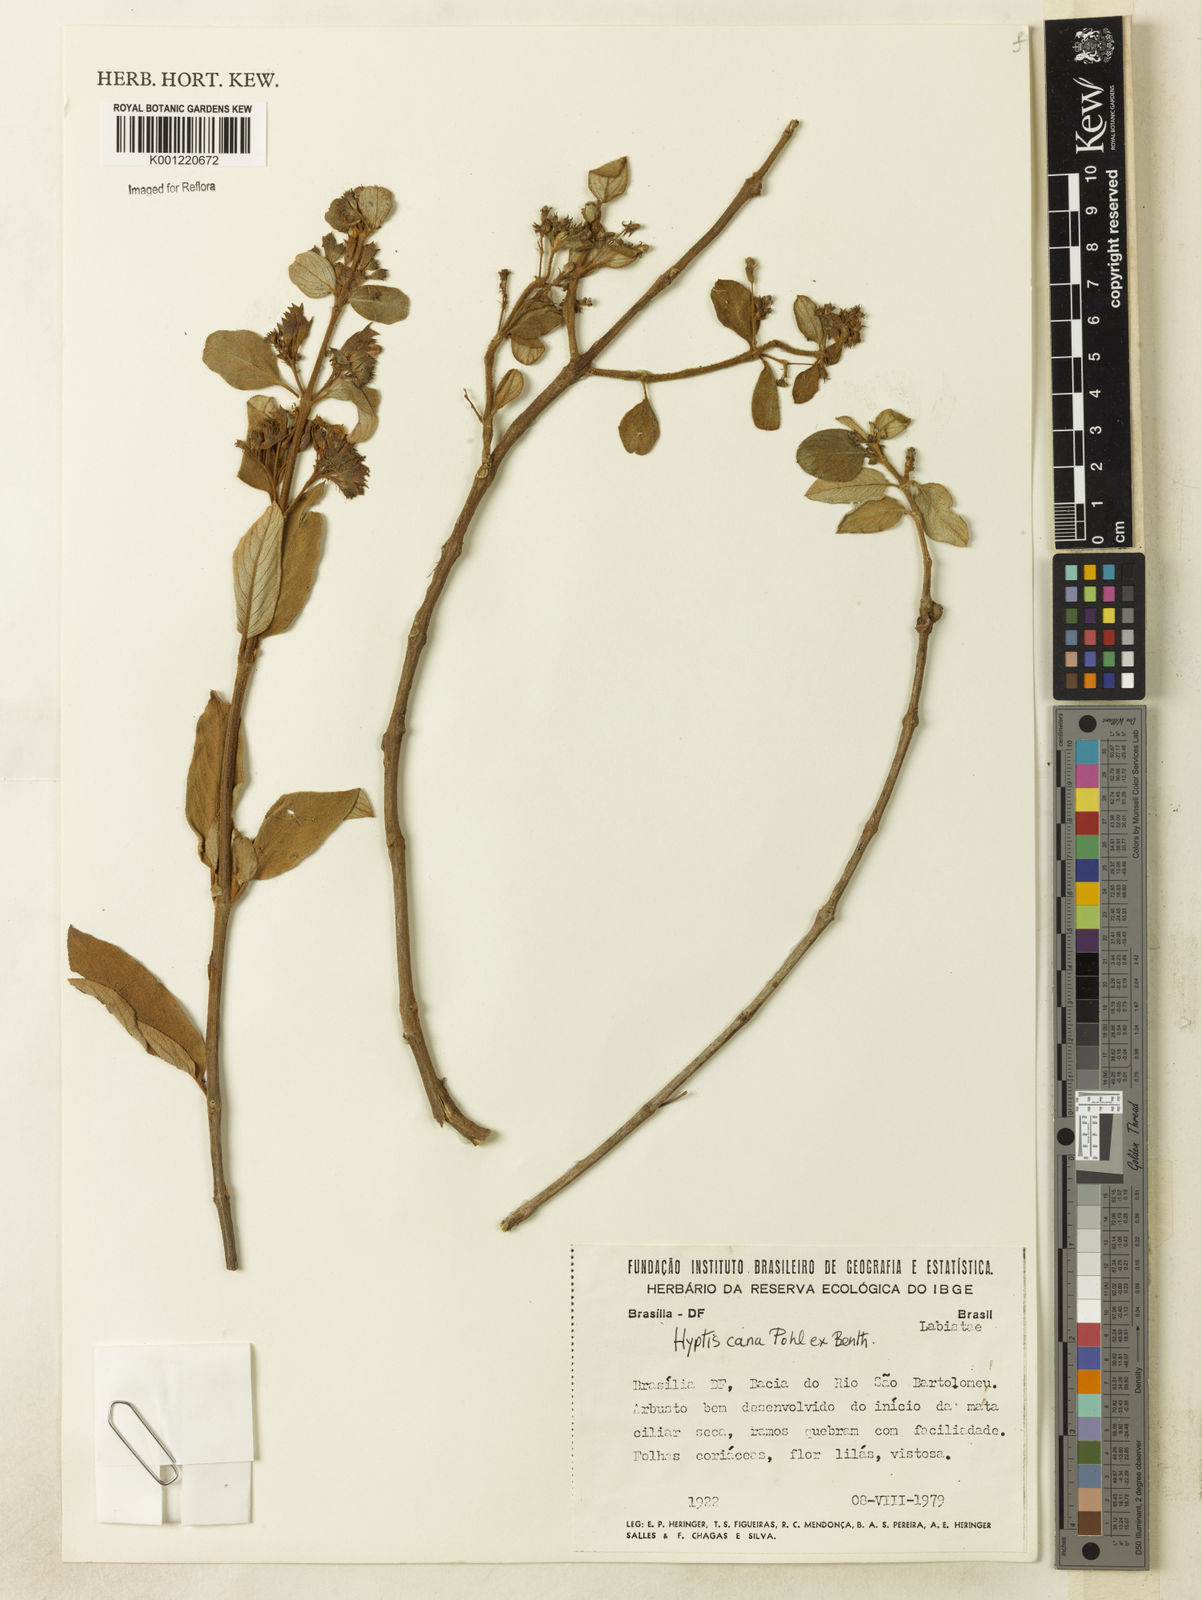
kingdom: Plantae
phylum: Tracheophyta
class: Magnoliopsida
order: Lamiales
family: Lamiaceae
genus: Hyptidendron
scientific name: Hyptidendron canum
